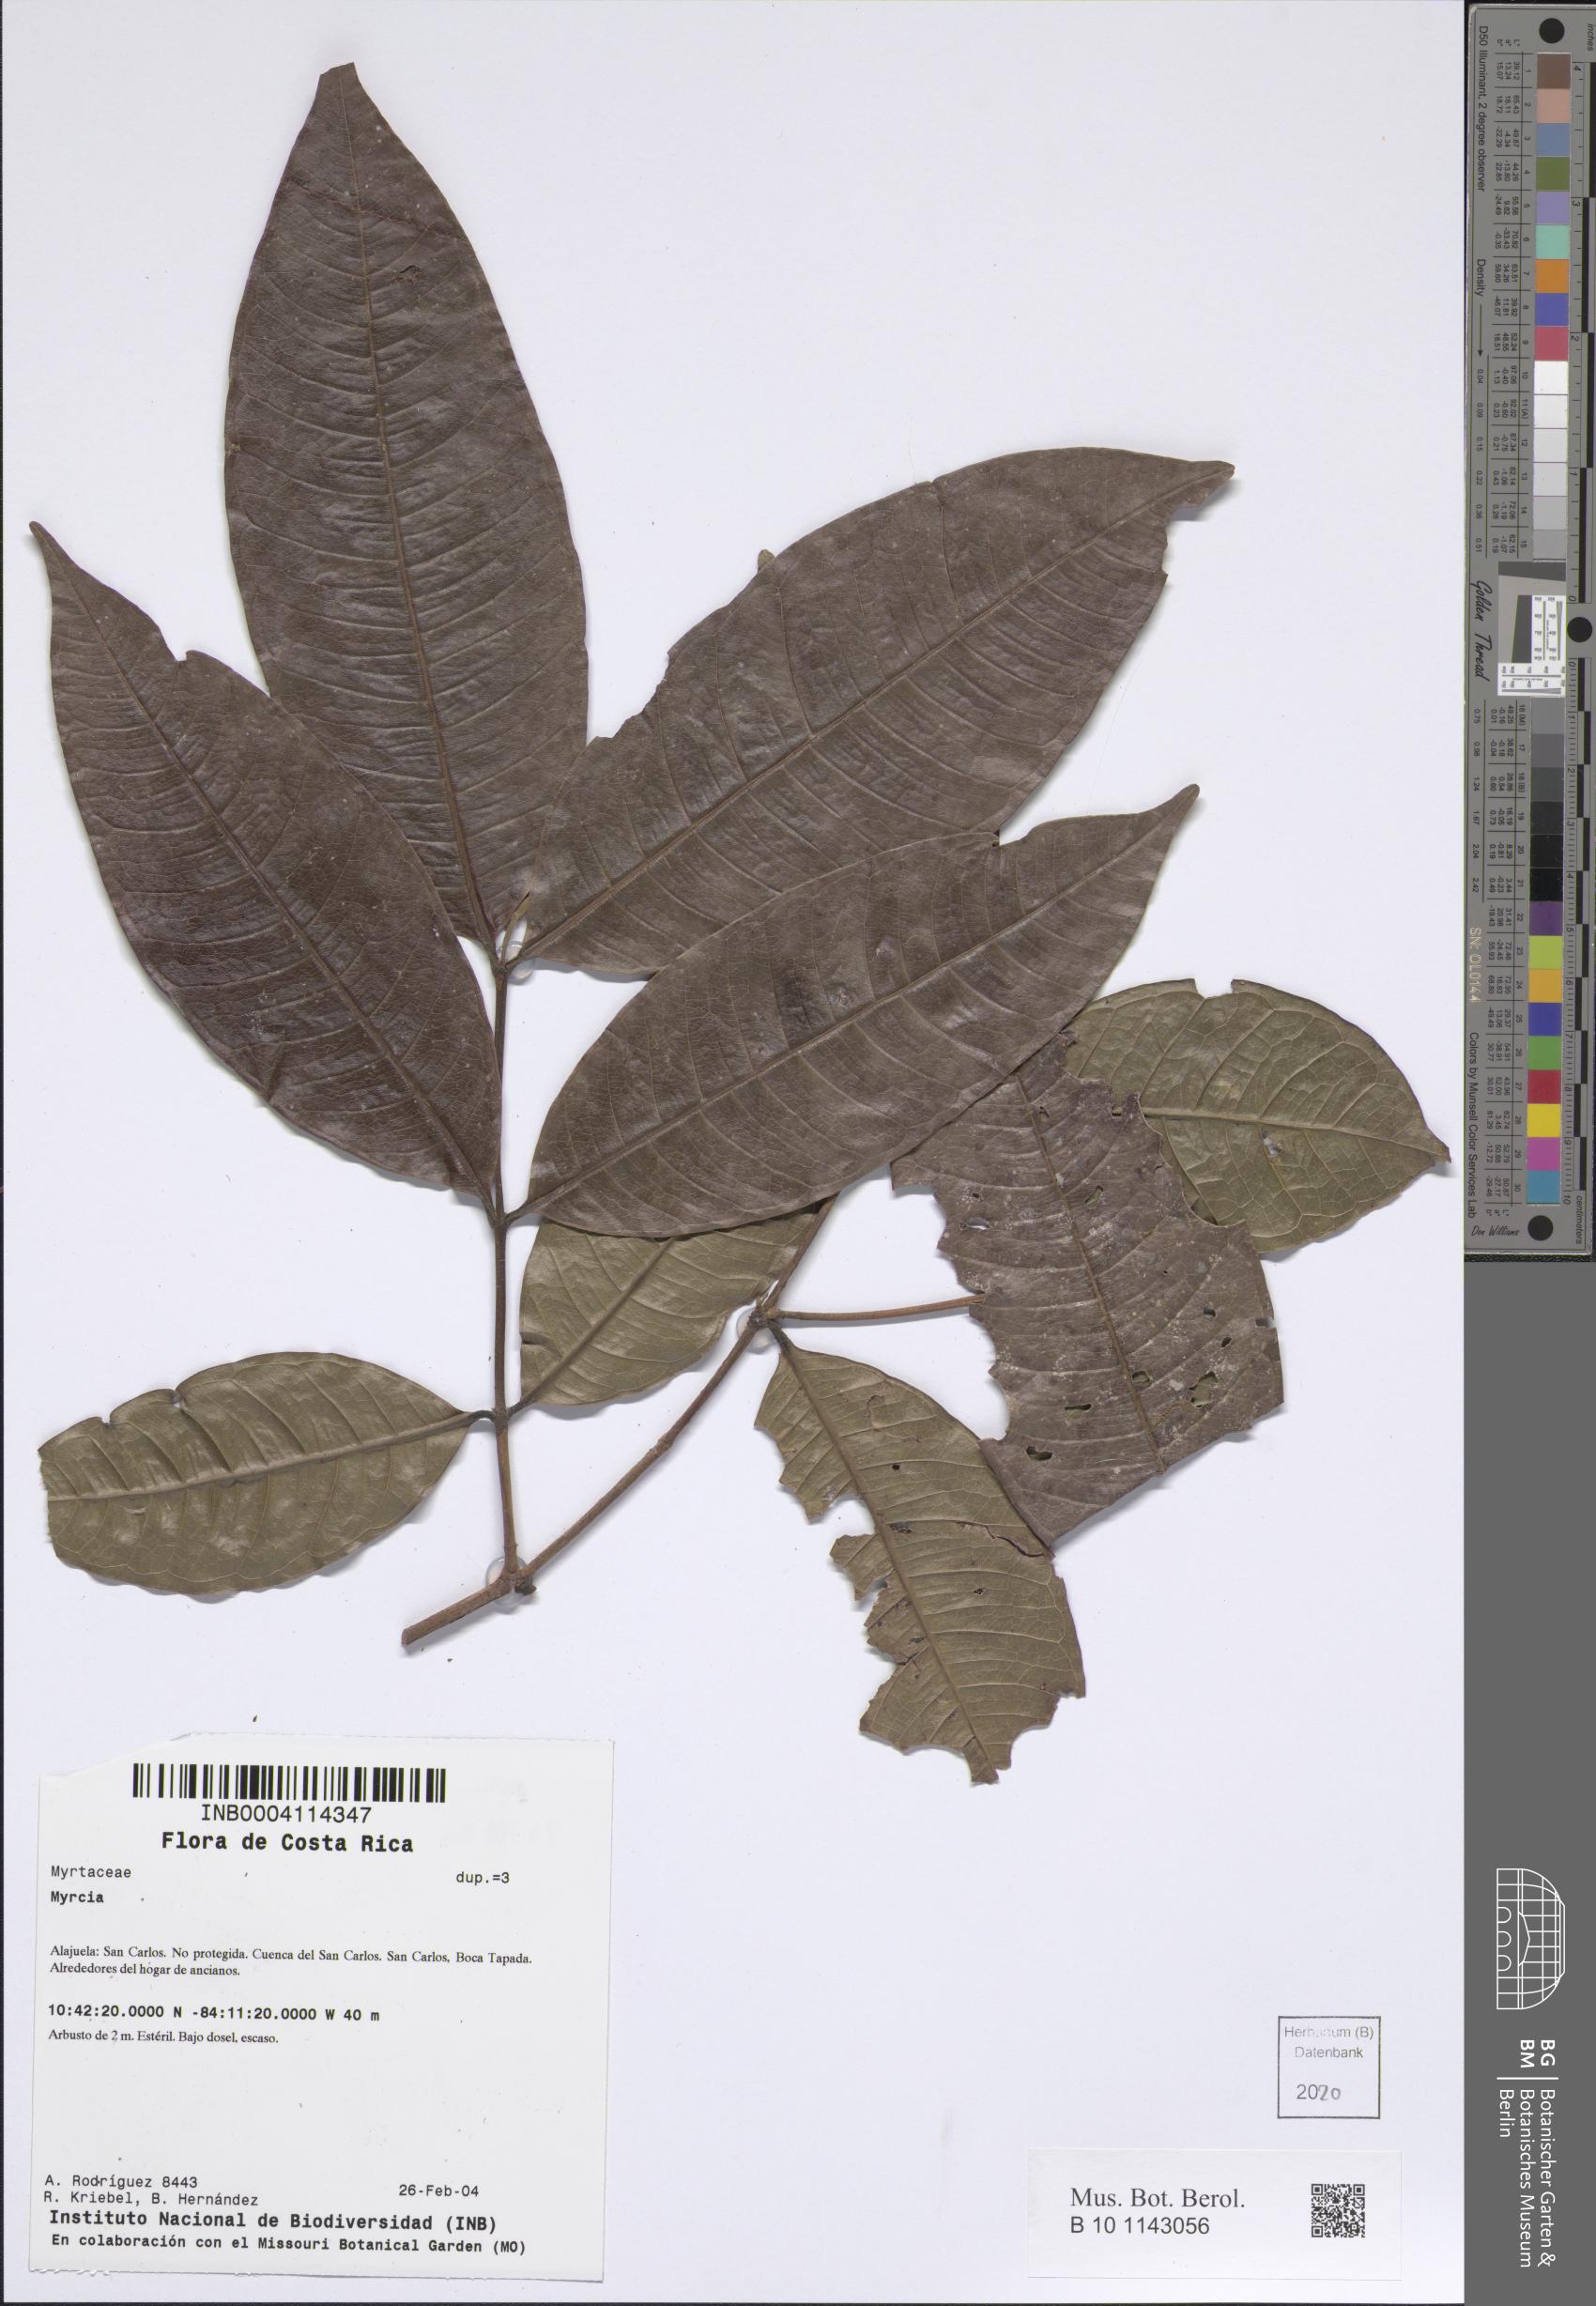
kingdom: Plantae
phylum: Tracheophyta
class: Magnoliopsida
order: Myrtales
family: Myrtaceae
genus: Myrcia
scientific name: Myrcia
